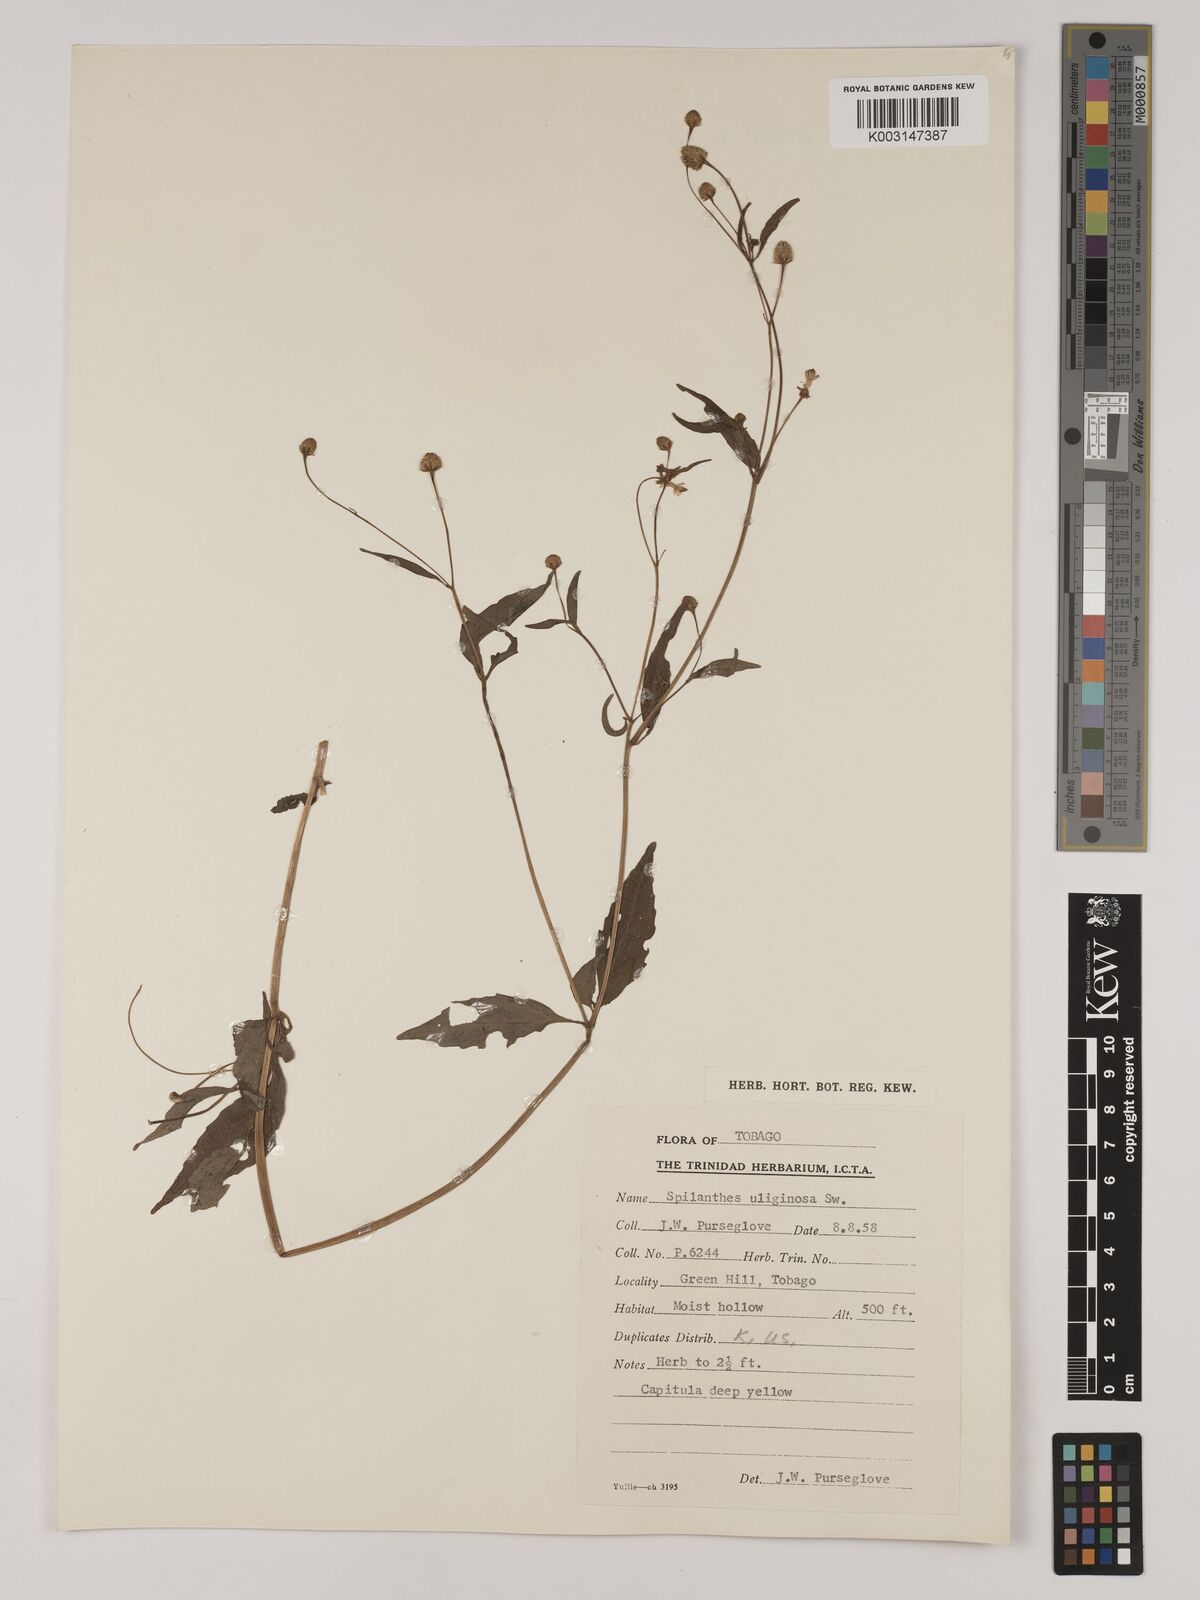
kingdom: Plantae
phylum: Tracheophyta
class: Magnoliopsida
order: Asterales
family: Asteraceae
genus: Acmella
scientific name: Acmella uliginosa
